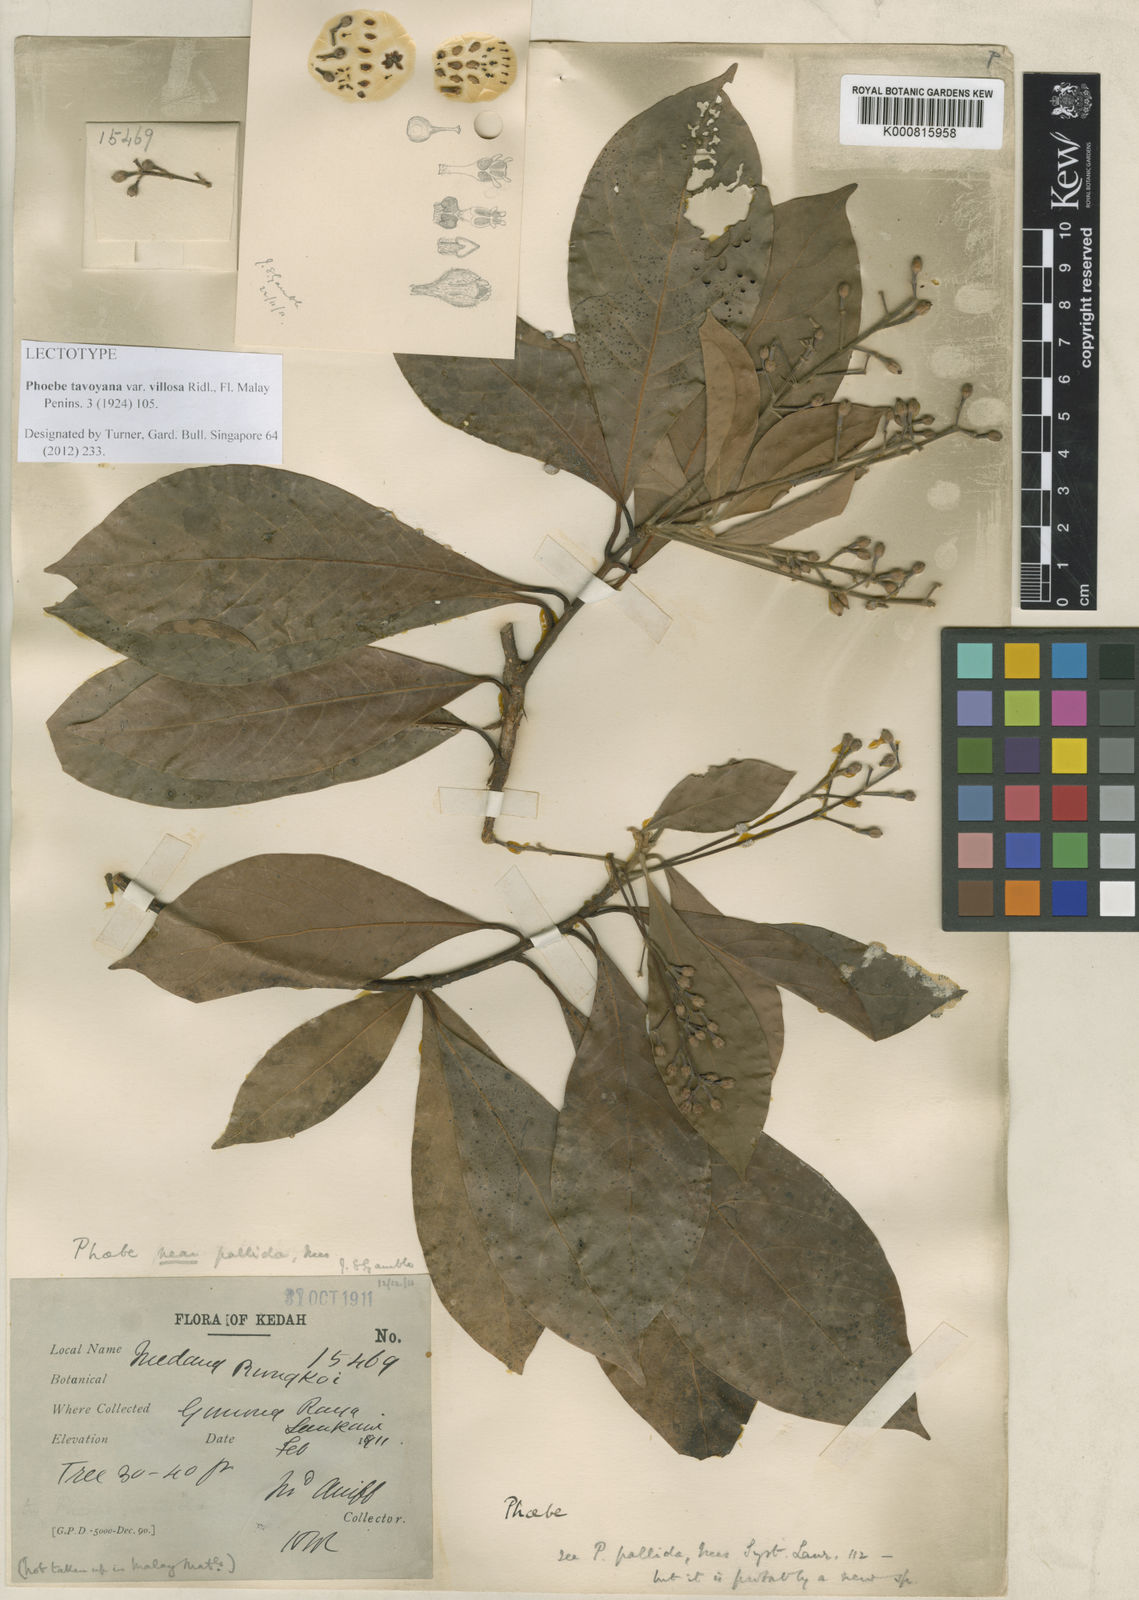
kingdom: Plantae
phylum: Tracheophyta
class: Magnoliopsida
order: Laurales
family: Lauraceae
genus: Phoebe
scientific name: Phoebe tavoyana
